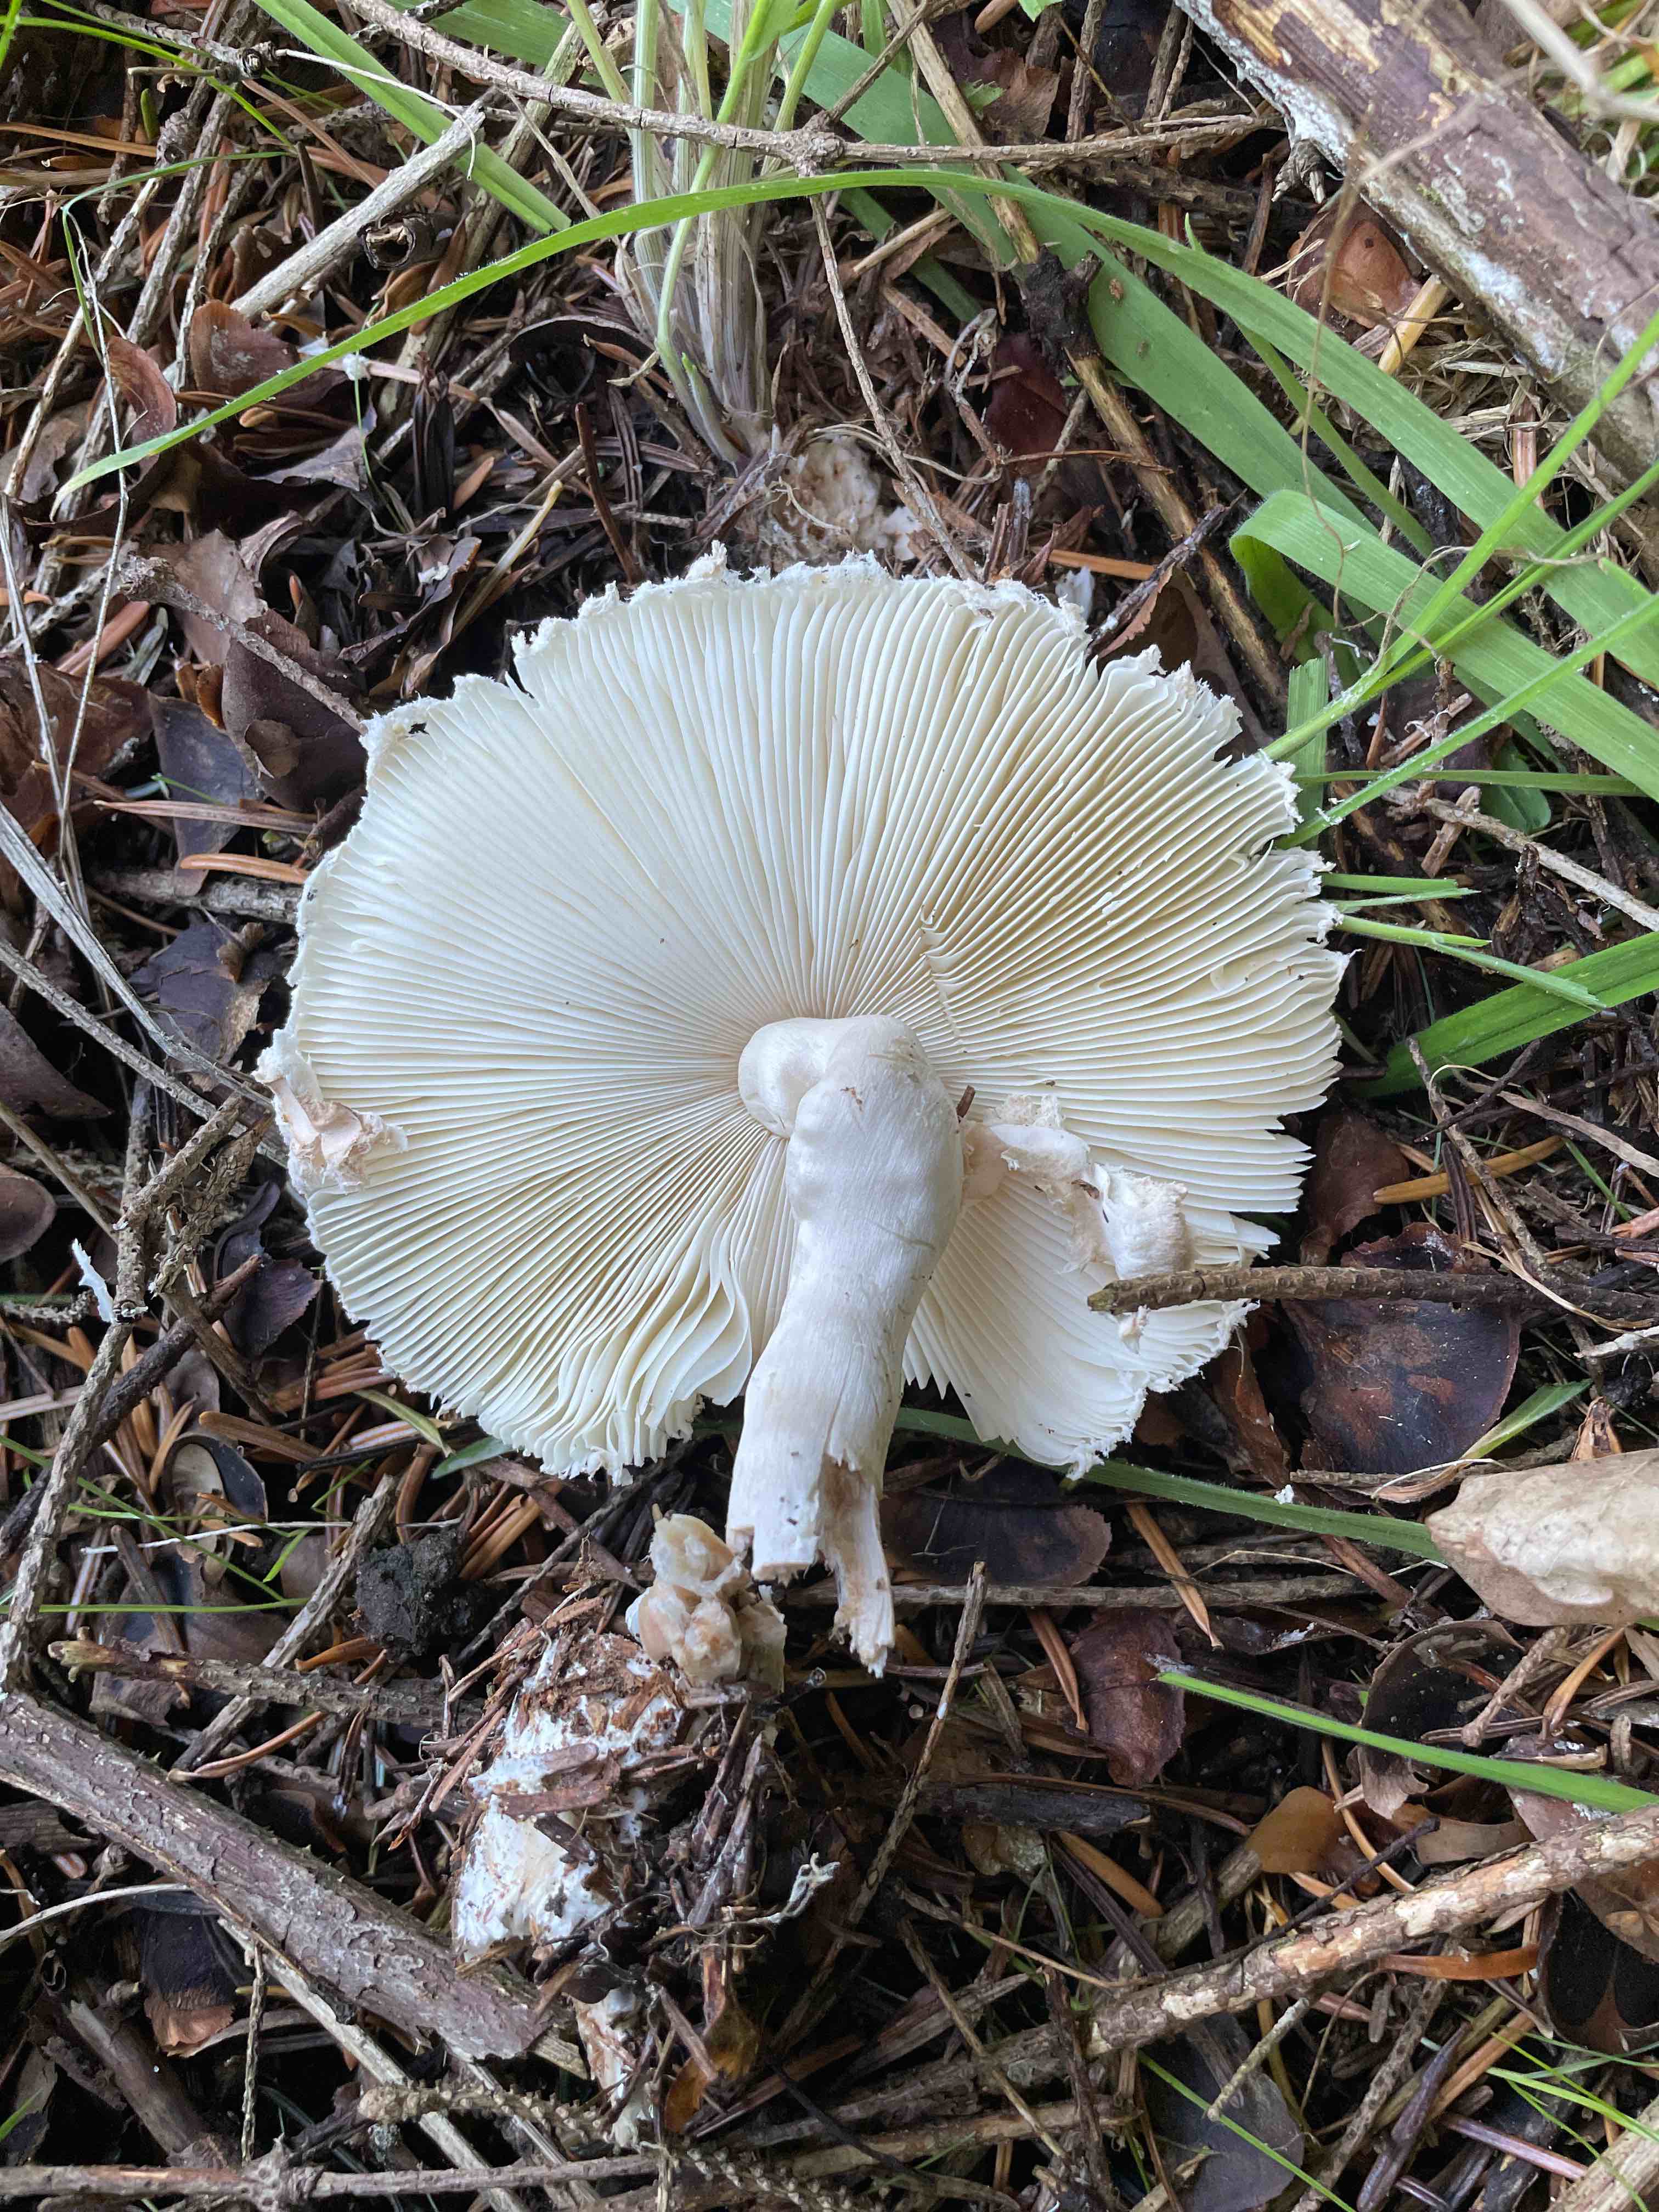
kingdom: Fungi
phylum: Basidiomycota
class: Agaricomycetes
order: Agaricales
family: Agaricaceae
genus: Leucoagaricus
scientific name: Leucoagaricus nympharum
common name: gran-silkehat
